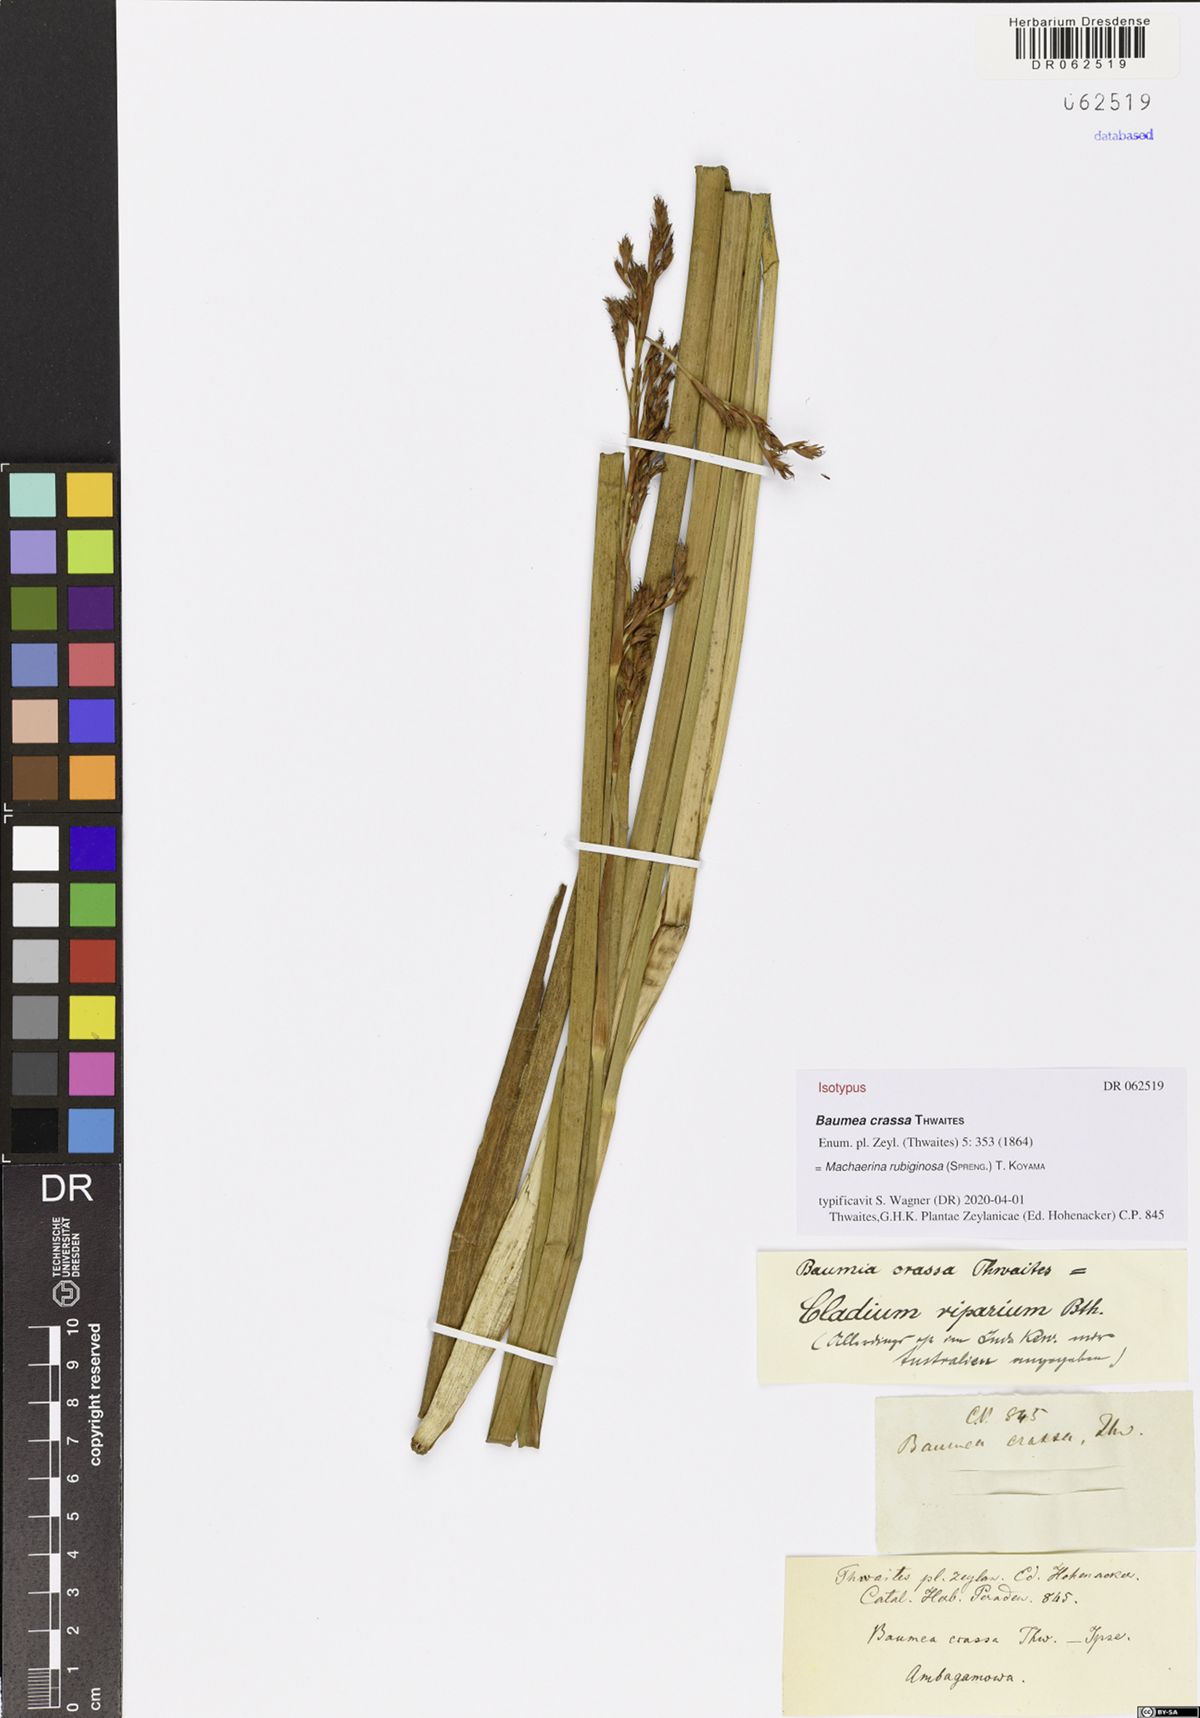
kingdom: Plantae
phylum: Tracheophyta
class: Liliopsida
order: Poales
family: Cyperaceae
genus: Machaerina
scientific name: Machaerina rubiginosa
